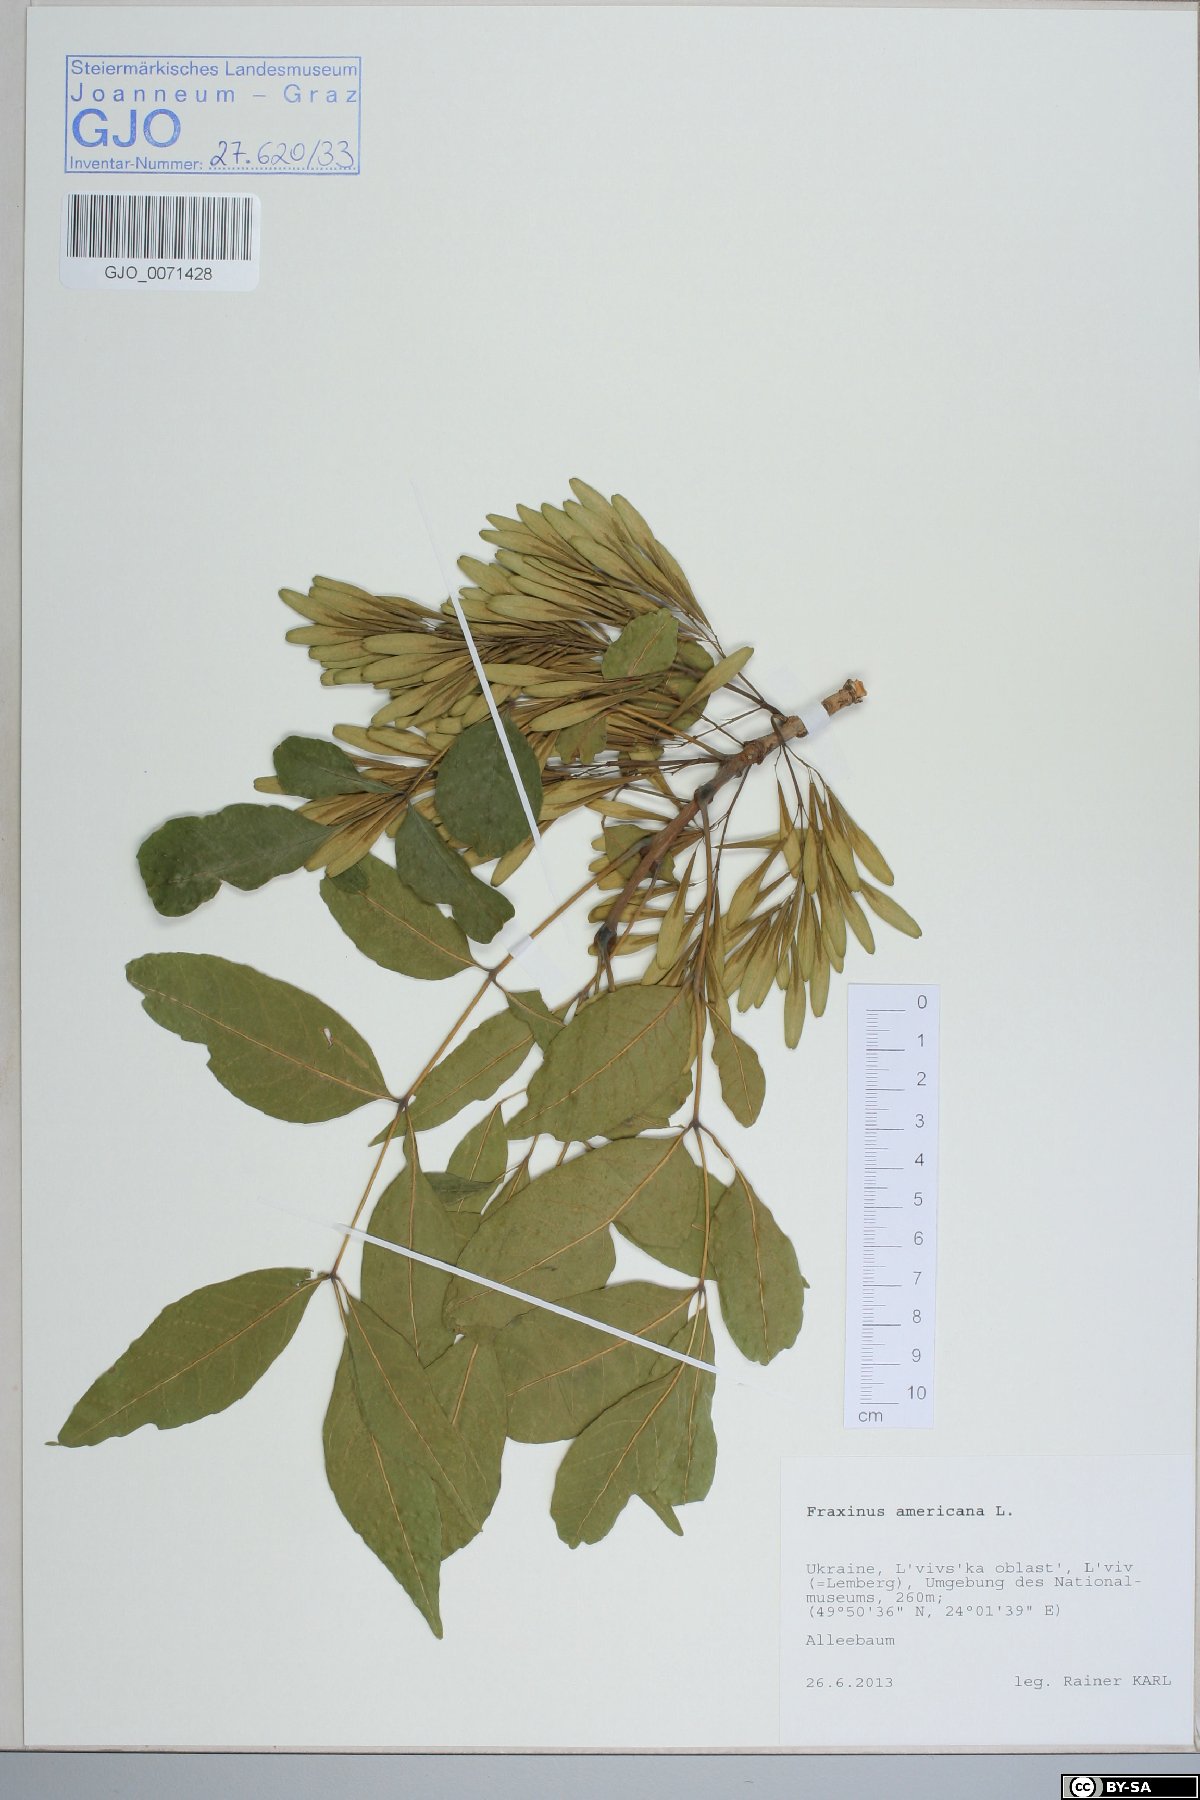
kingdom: Plantae
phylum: Tracheophyta
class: Magnoliopsida
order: Lamiales
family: Oleaceae
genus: Fraxinus
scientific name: Fraxinus americana
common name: White ash
